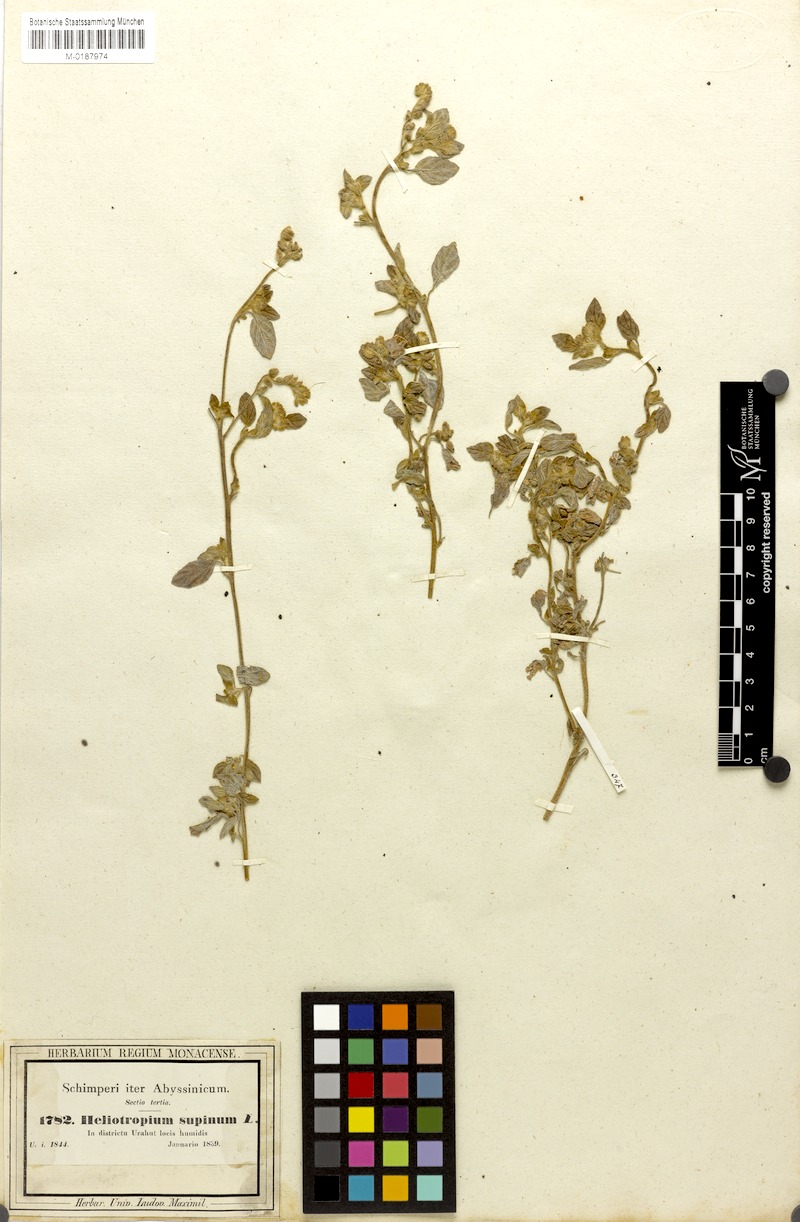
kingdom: Plantae
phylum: Tracheophyta
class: Magnoliopsida
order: Boraginales
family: Heliotropiaceae
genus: Heliotropium
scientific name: Heliotropium supinum
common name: Dwarf heliotrope
